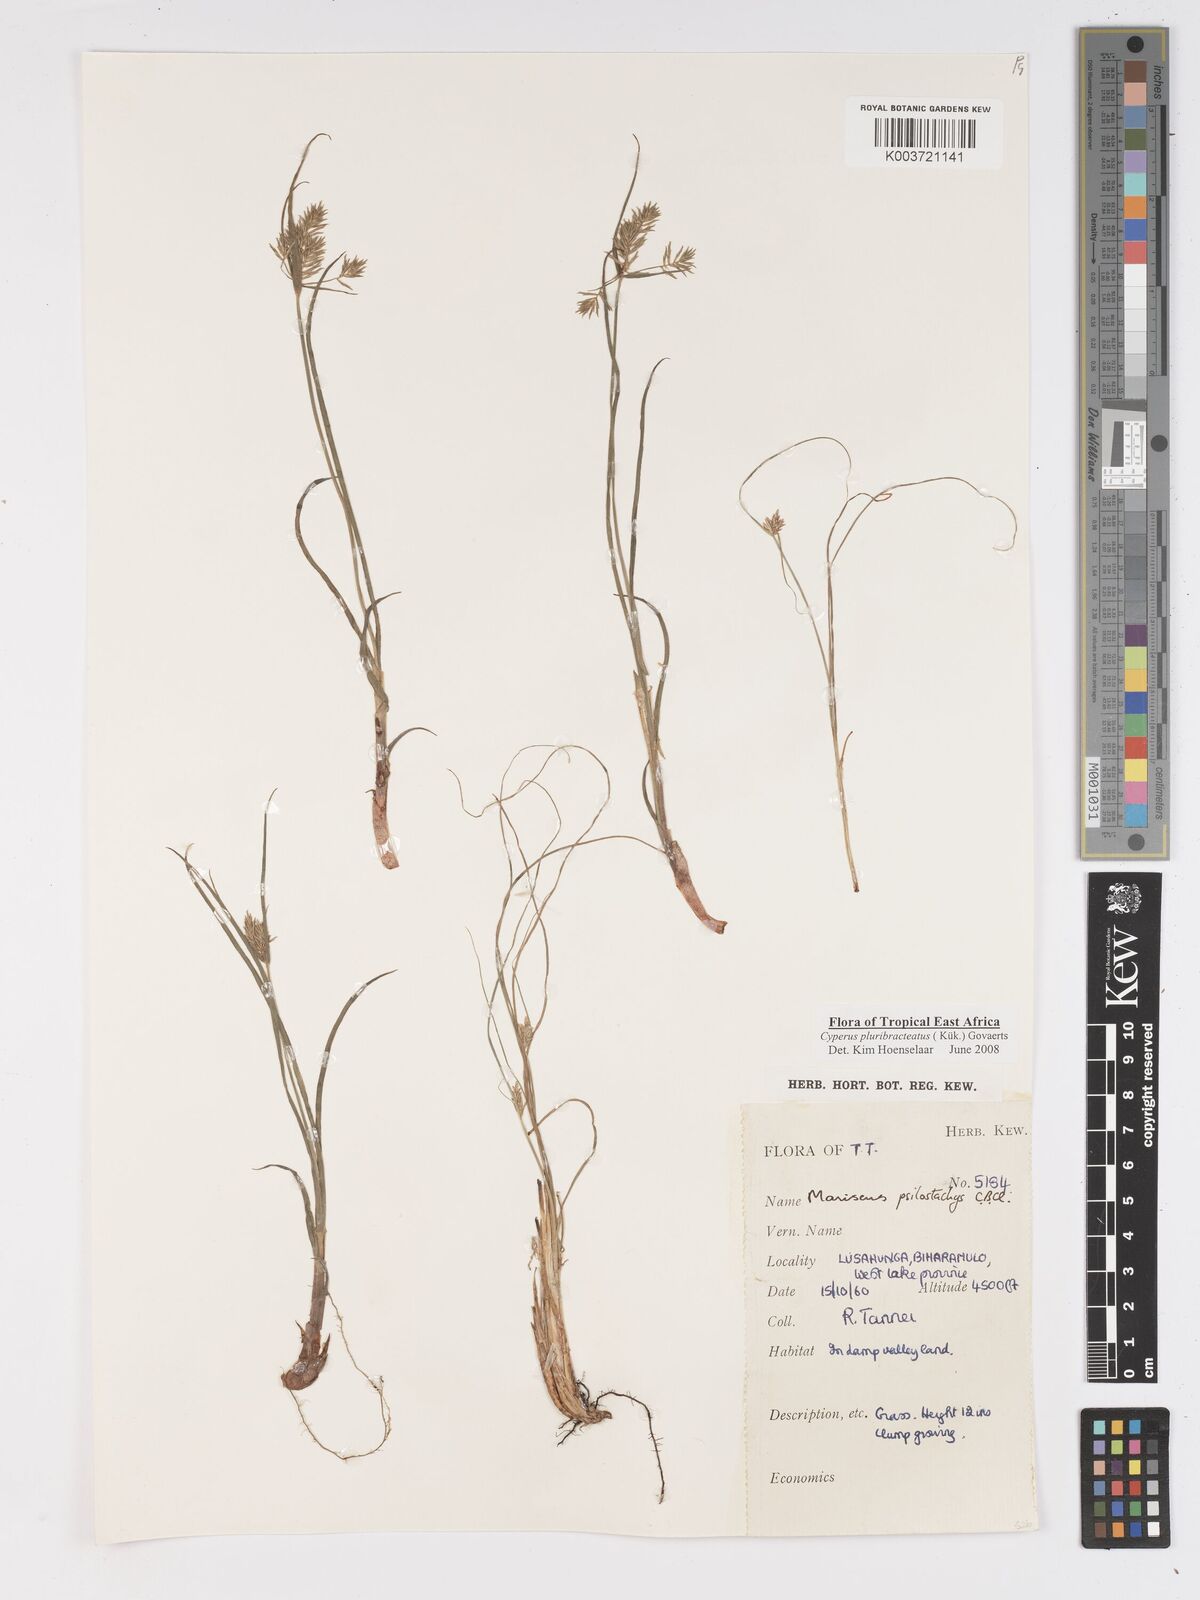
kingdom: Plantae
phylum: Tracheophyta
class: Liliopsida
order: Poales
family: Cyperaceae
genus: Cyperus
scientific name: Cyperus trigonellus
